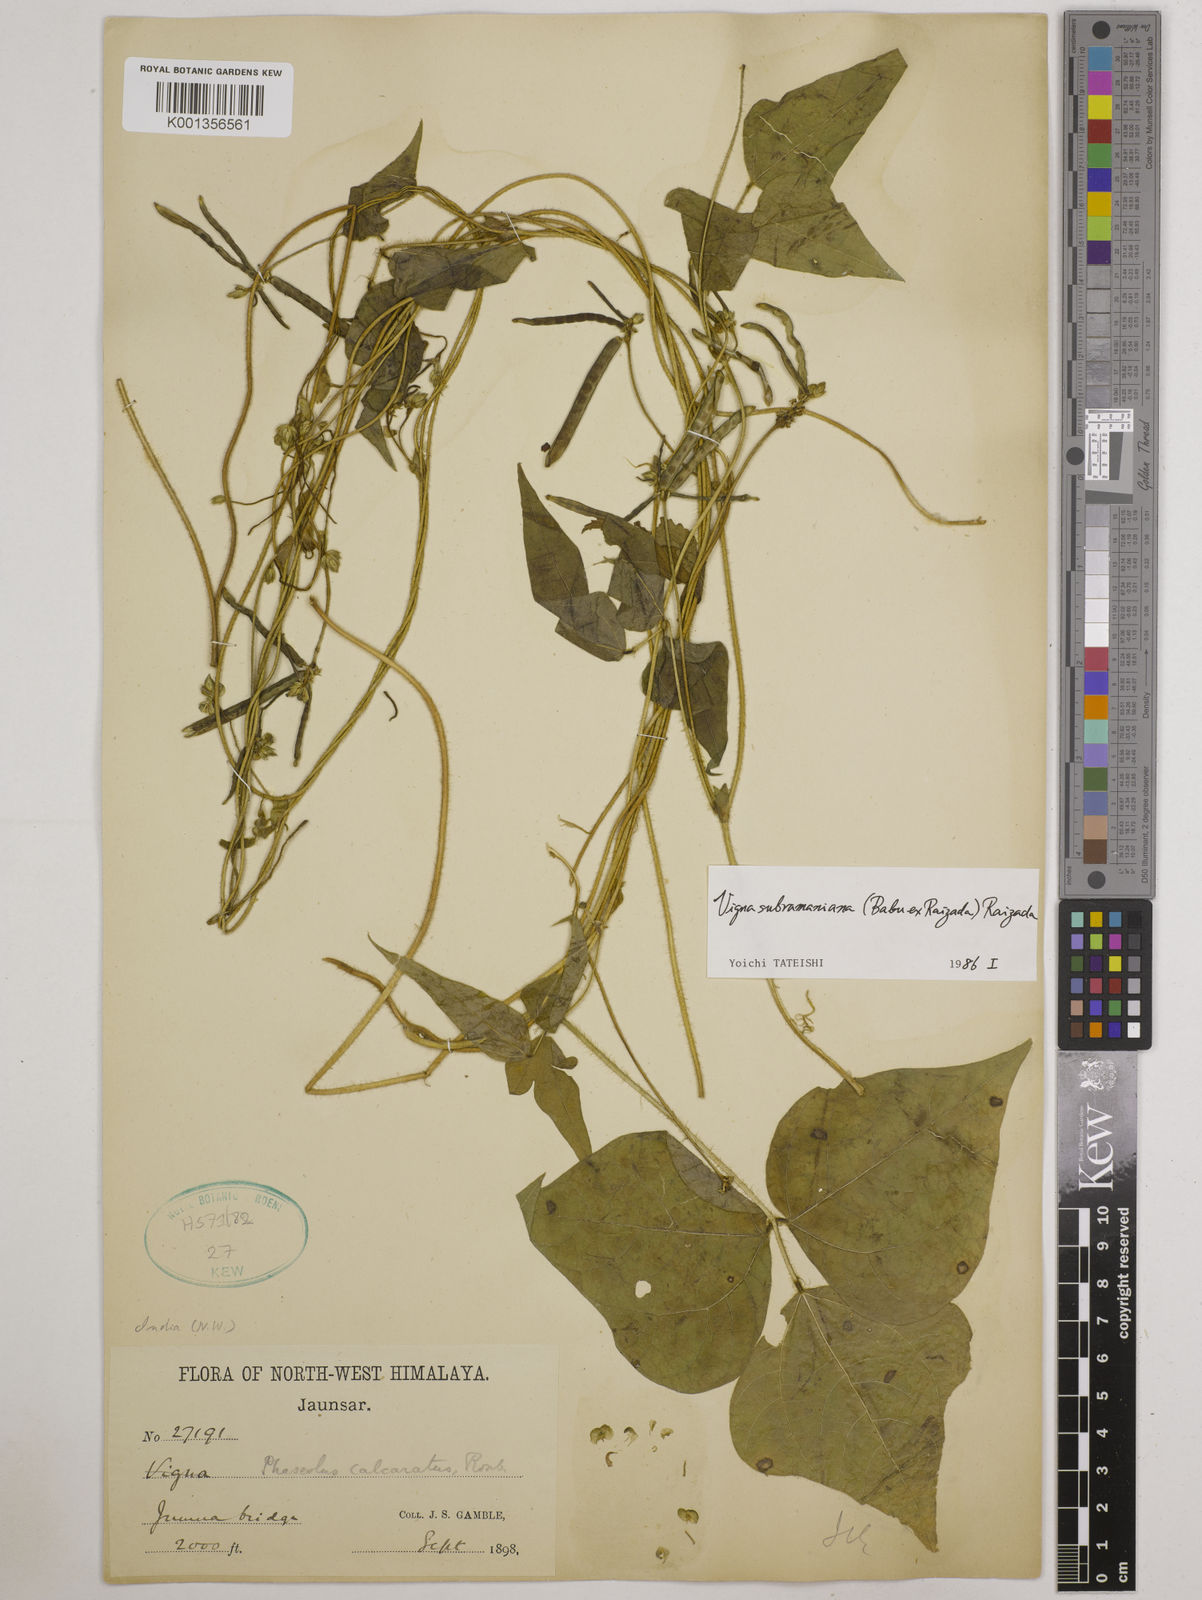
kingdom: Plantae
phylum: Tracheophyta
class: Magnoliopsida
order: Fabales
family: Fabaceae
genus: Vigna
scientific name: Vigna subramaniana
